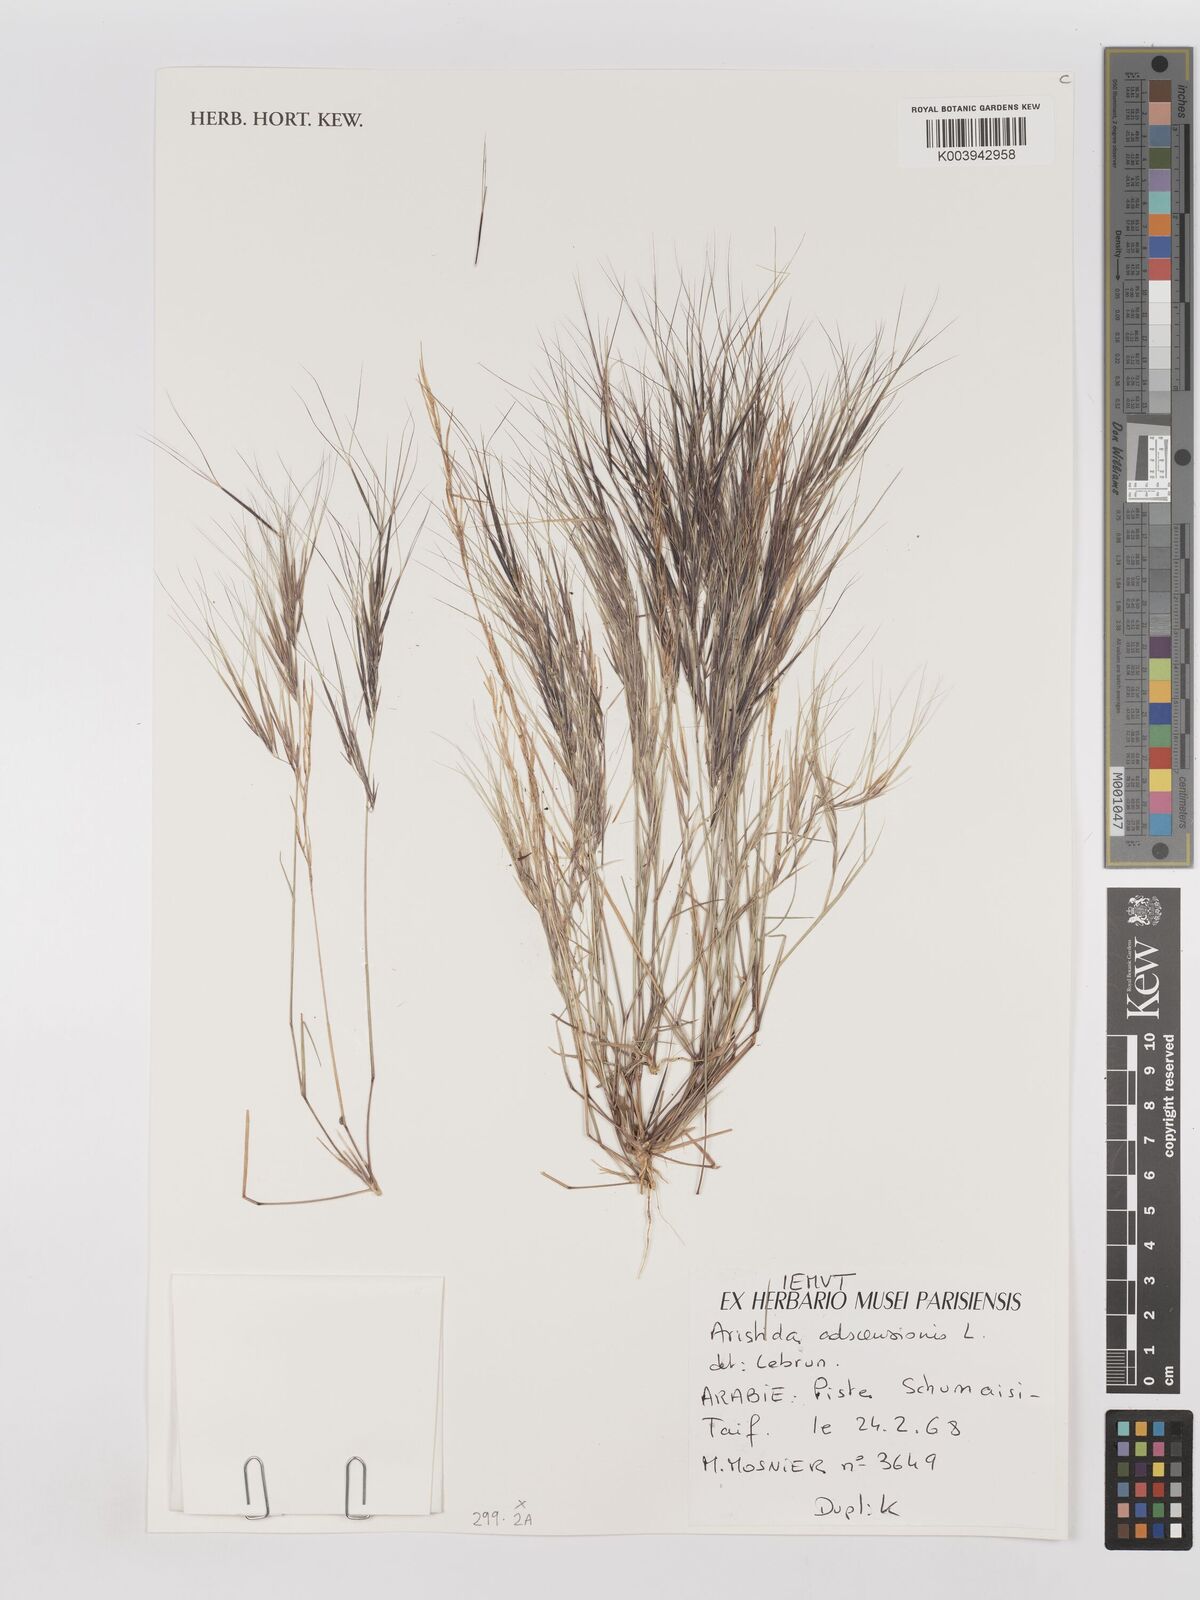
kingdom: Plantae
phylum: Tracheophyta
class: Liliopsida
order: Poales
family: Poaceae
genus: Aristida
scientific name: Aristida adscensionis
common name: Sixweeks threeawn
